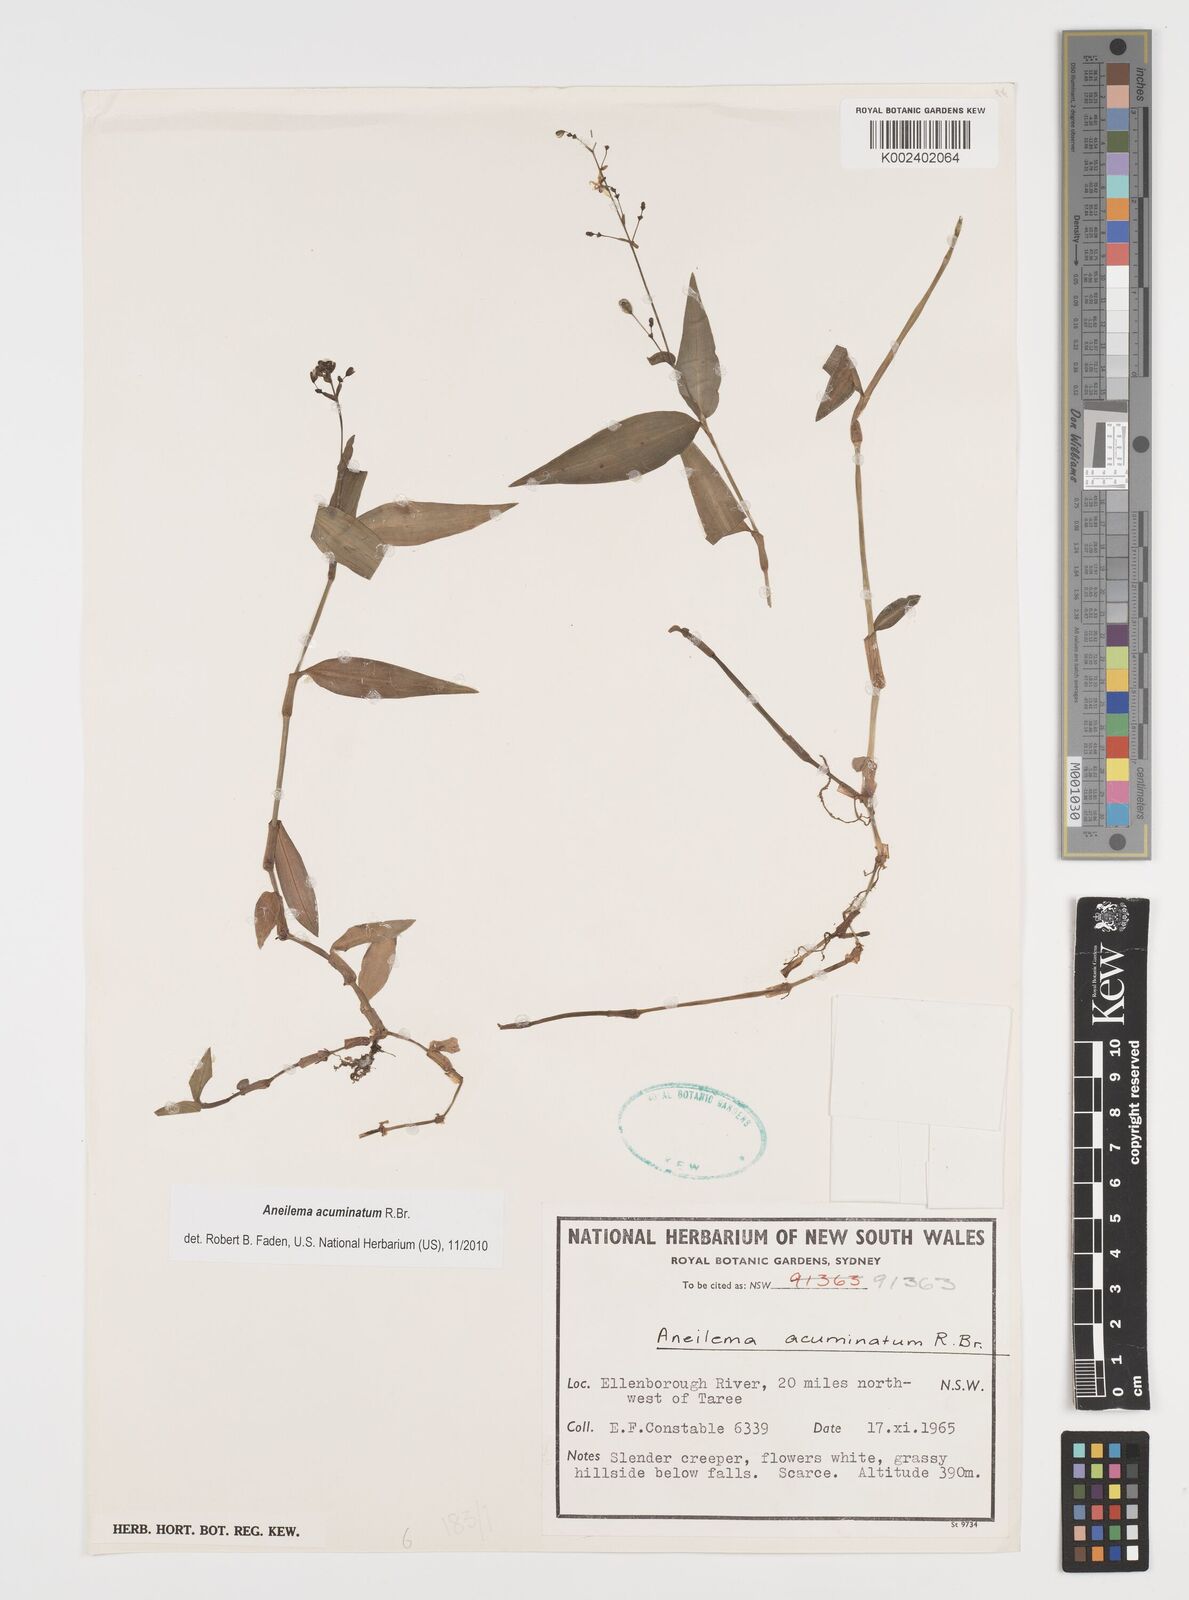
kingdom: Plantae
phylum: Tracheophyta
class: Liliopsida
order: Commelinales
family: Commelinaceae
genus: Aneilema
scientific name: Aneilema acuminatum
